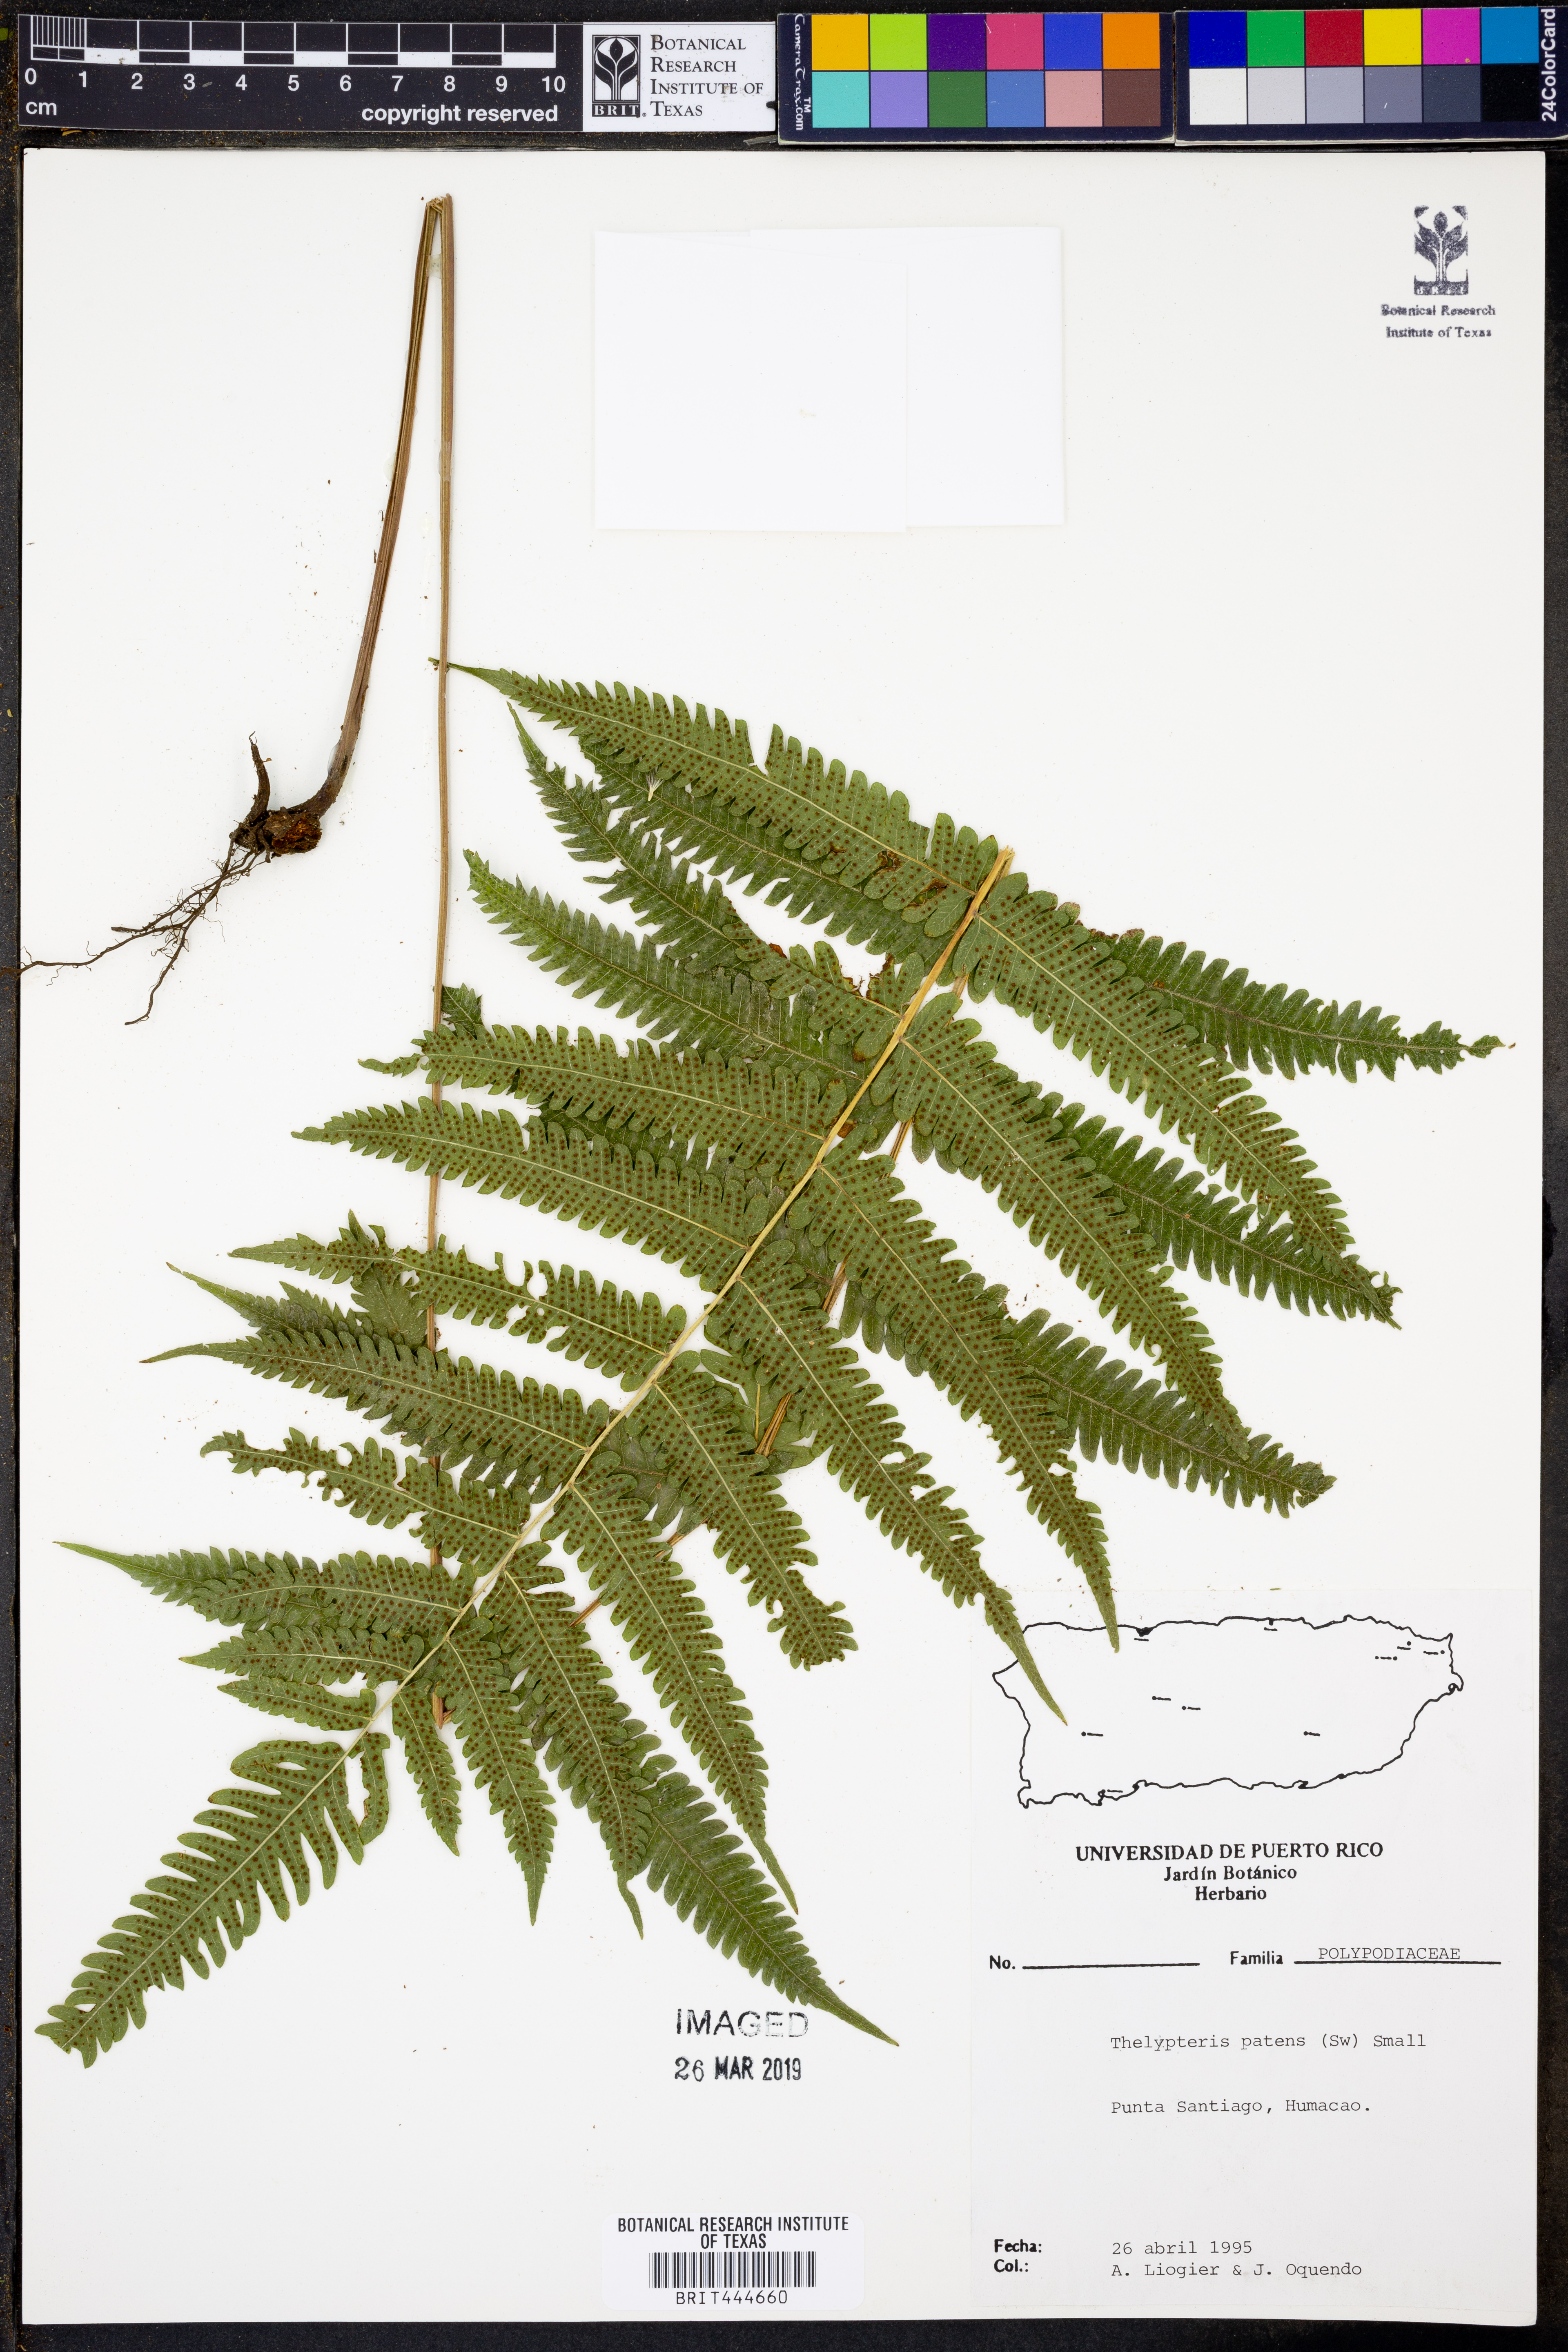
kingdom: Plantae
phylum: Tracheophyta
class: Polypodiopsida
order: Polypodiales
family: Thelypteridaceae
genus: Pelazoneuron
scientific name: Pelazoneuron patens
